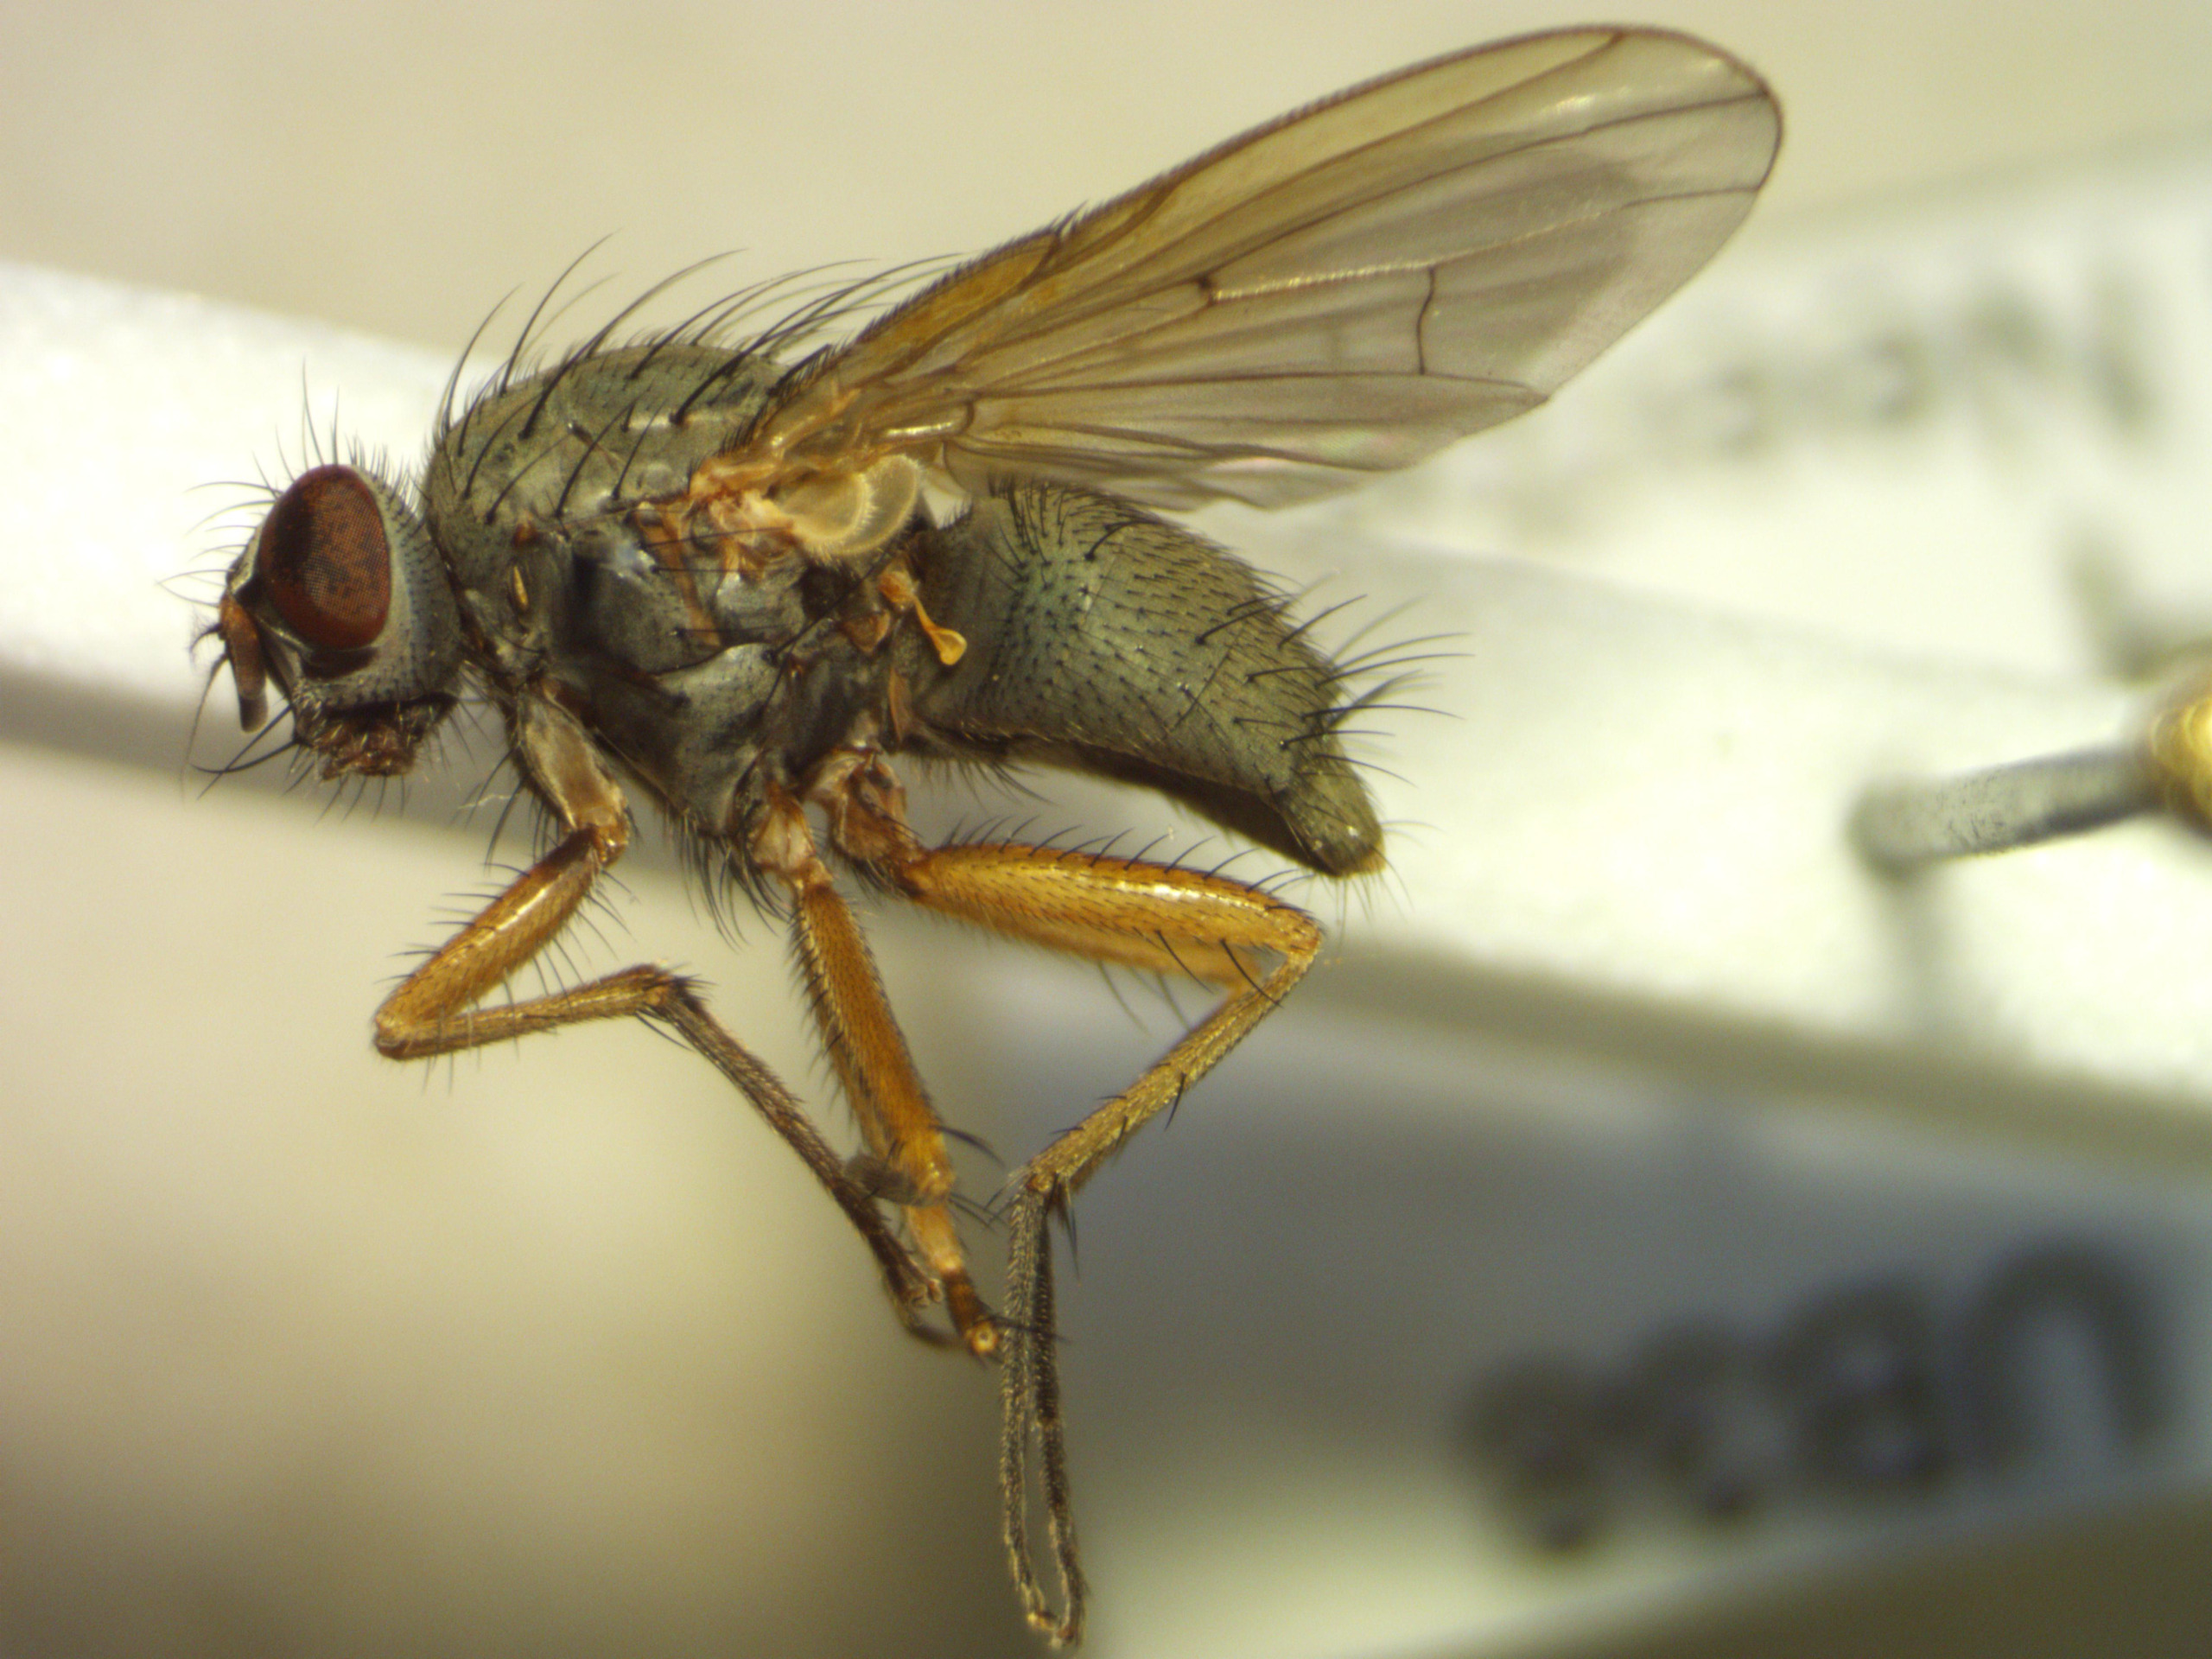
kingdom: Animalia
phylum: Arthropoda
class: Insecta
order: Diptera
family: Muscidae
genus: Helina
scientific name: Helina depuncta
